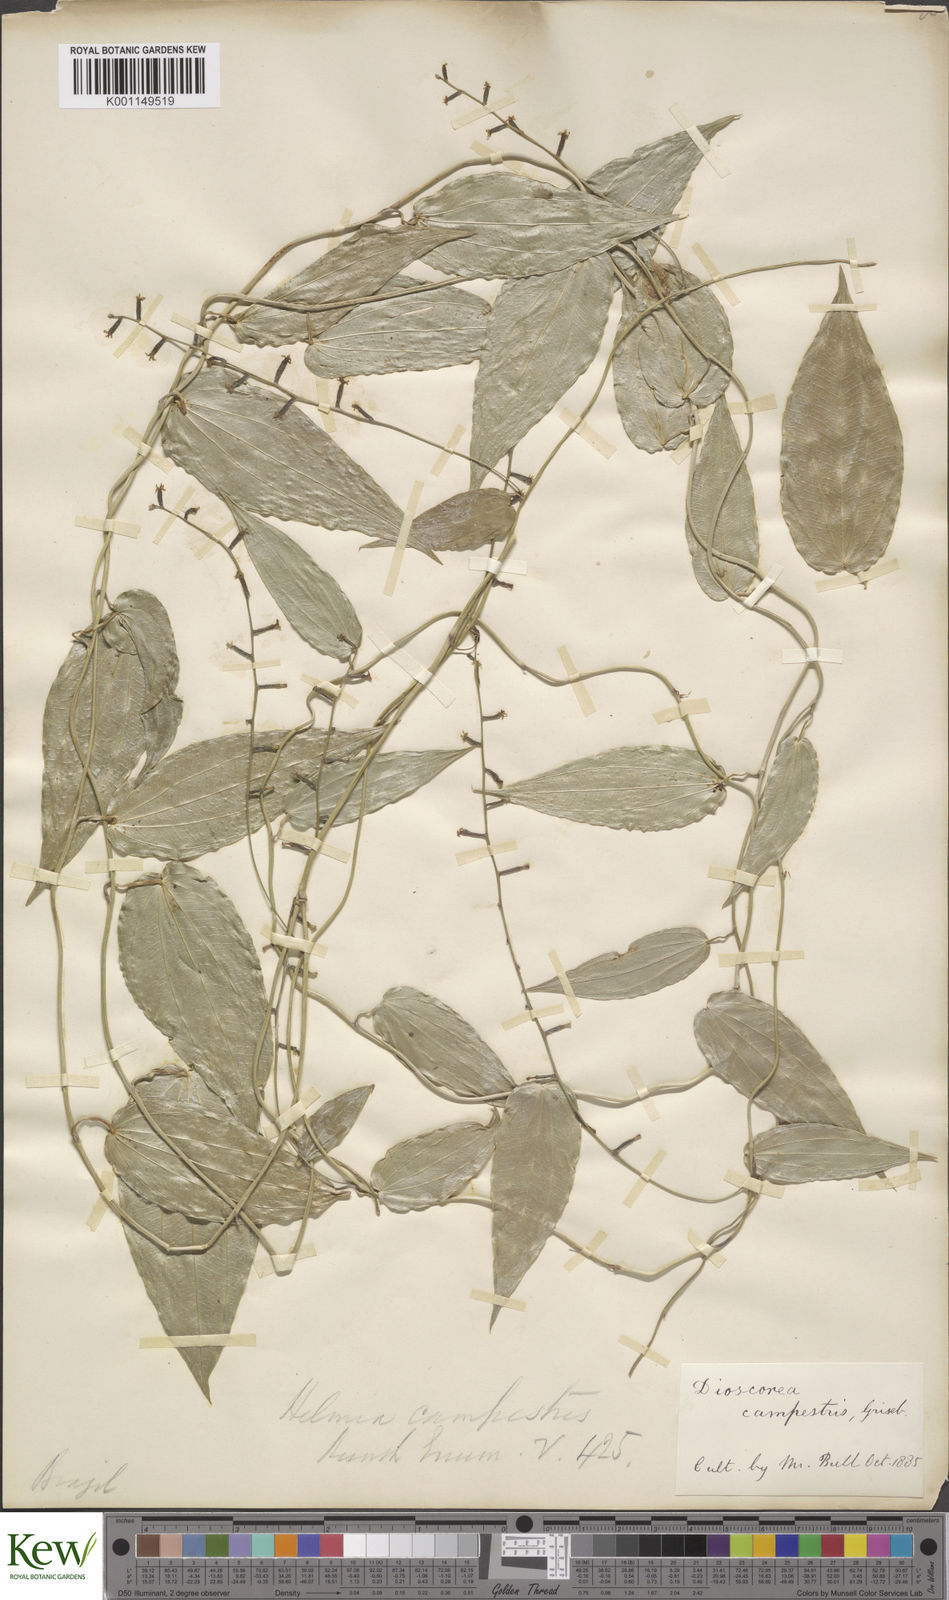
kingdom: Plantae
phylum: Tracheophyta
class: Liliopsida
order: Dioscoreales
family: Dioscoreaceae
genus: Dioscorea
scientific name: Dioscorea campestris
